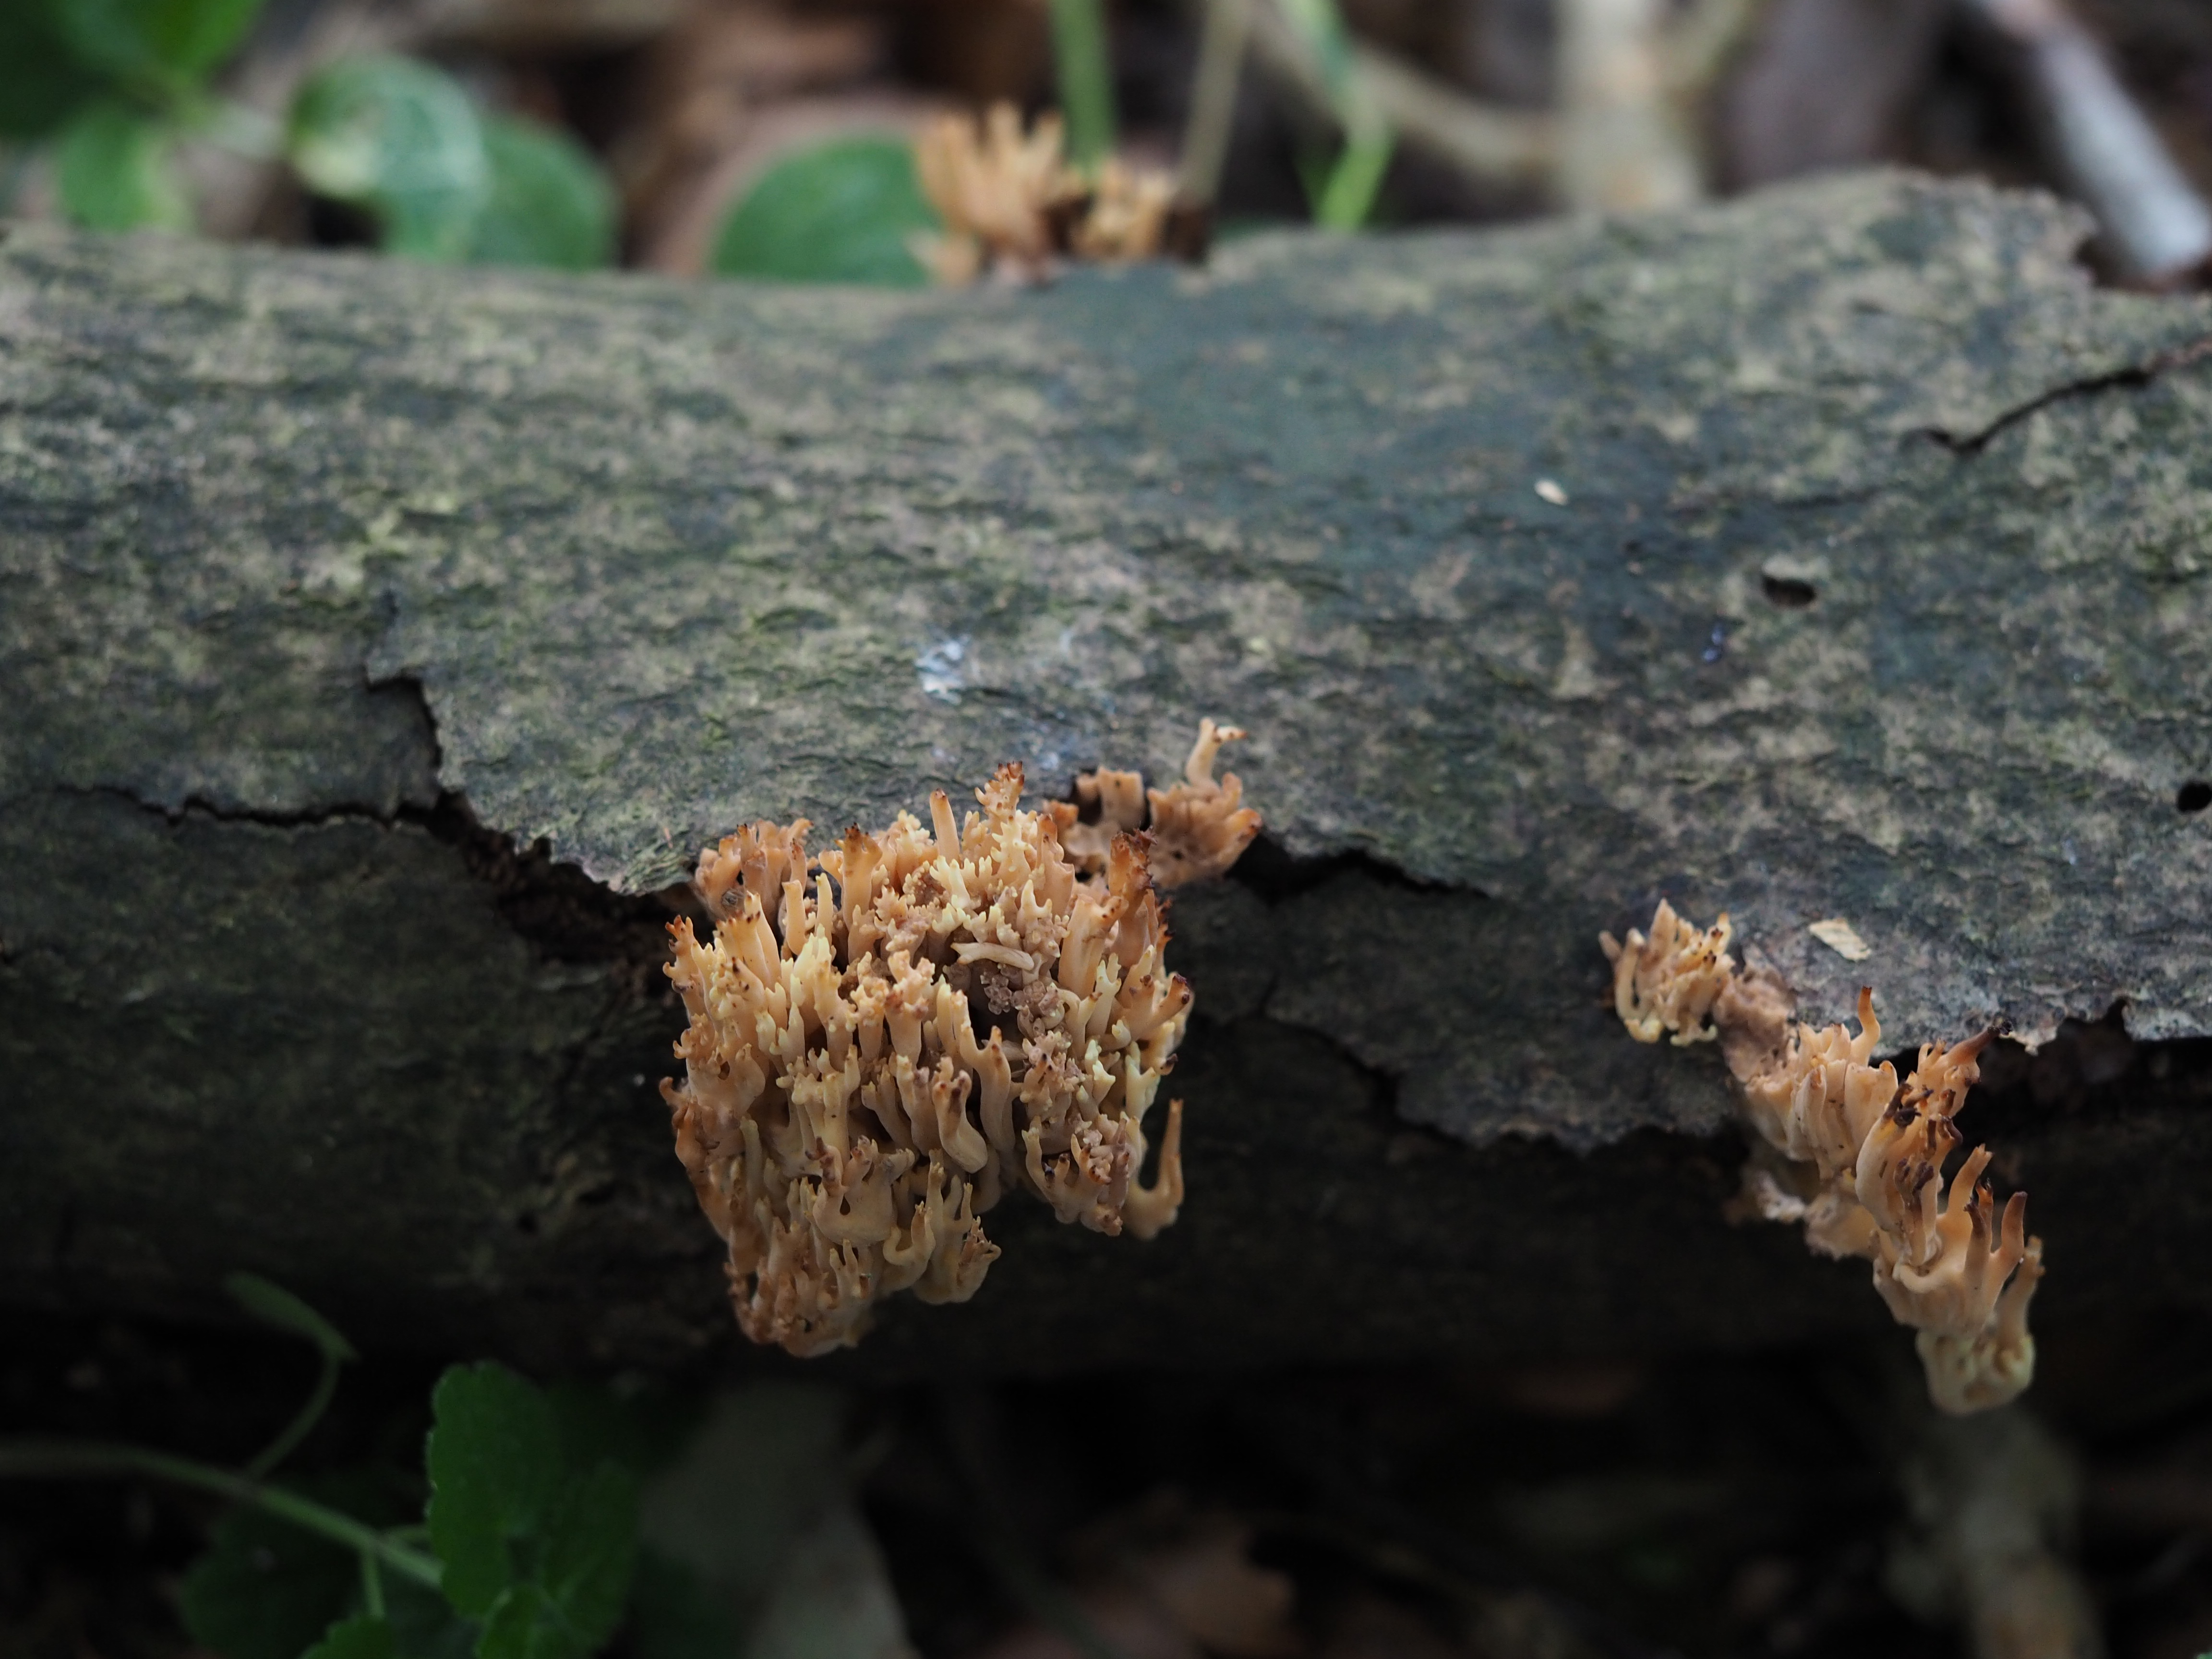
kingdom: Fungi
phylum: Basidiomycota
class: Agaricomycetes
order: Gomphales
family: Gomphaceae
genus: Ramaria
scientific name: Ramaria stricta
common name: rank koralsvamp
